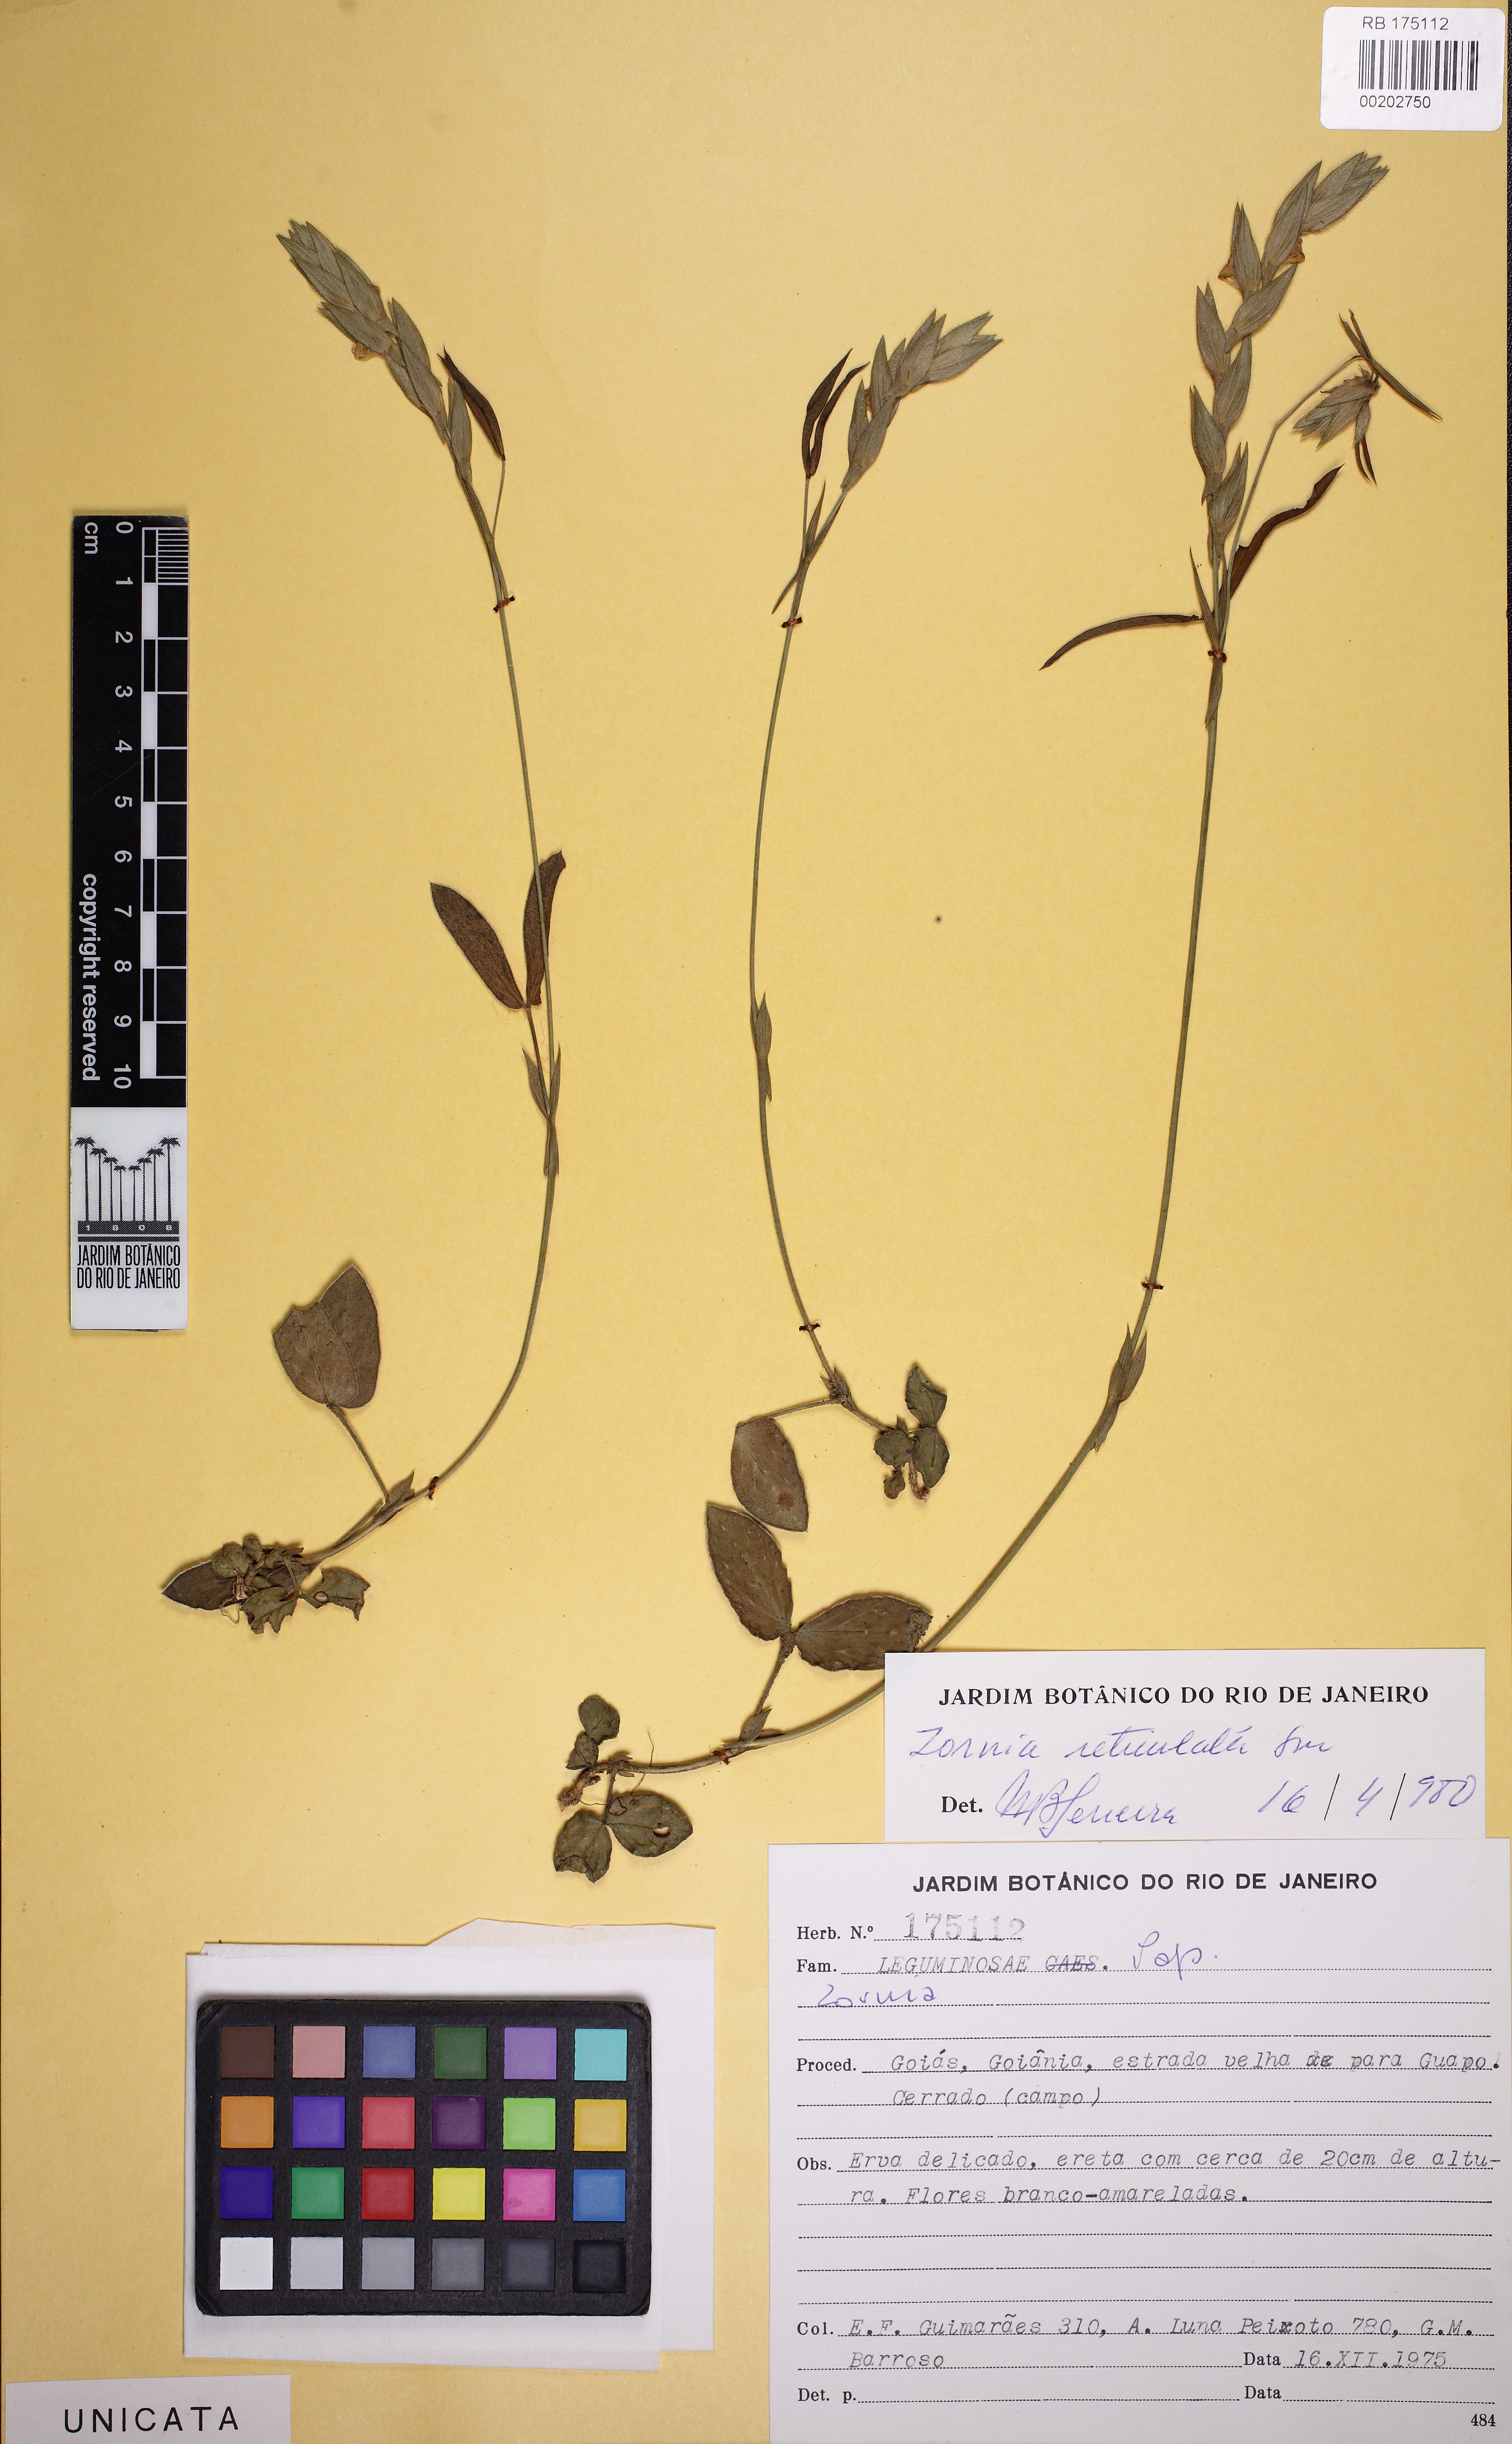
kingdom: Plantae
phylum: Tracheophyta
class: Magnoliopsida
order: Fabales
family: Fabaceae
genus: Zornia
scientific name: Zornia
